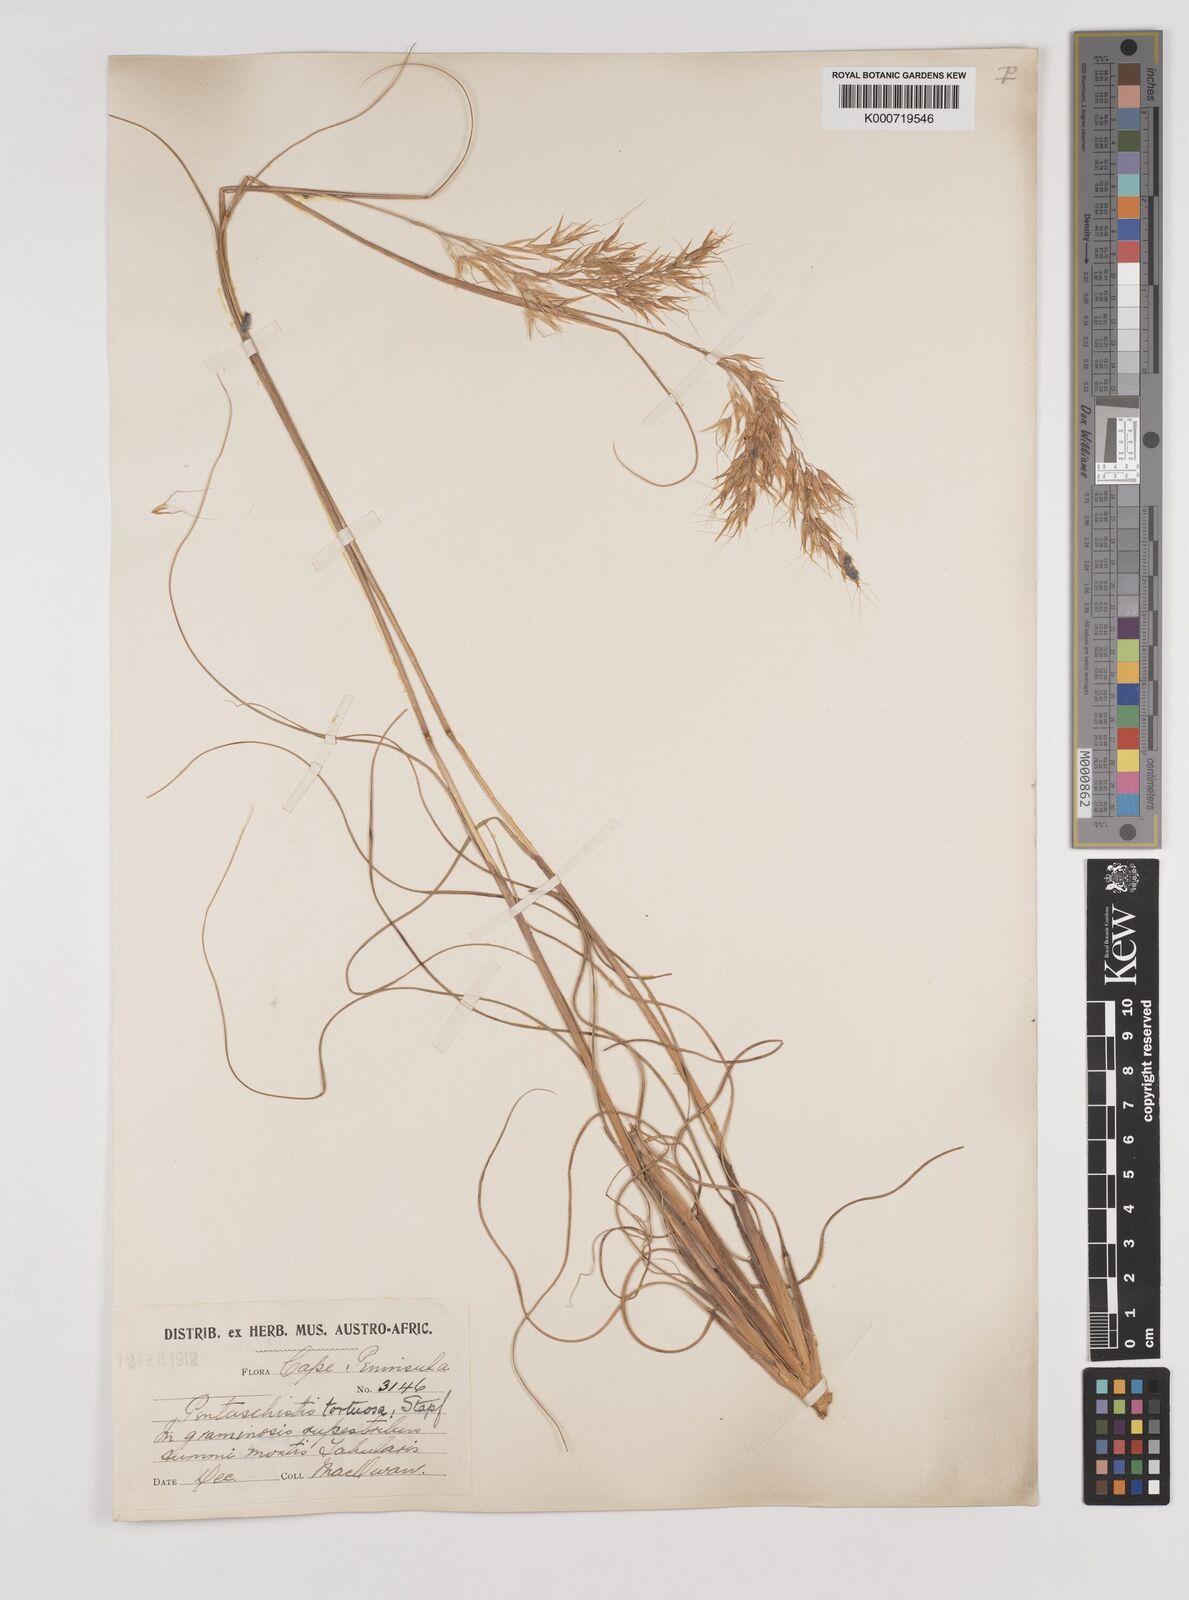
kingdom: Plantae
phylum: Tracheophyta
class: Liliopsida
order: Poales
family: Poaceae
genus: Pentameris
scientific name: Pentameris tortuosa
